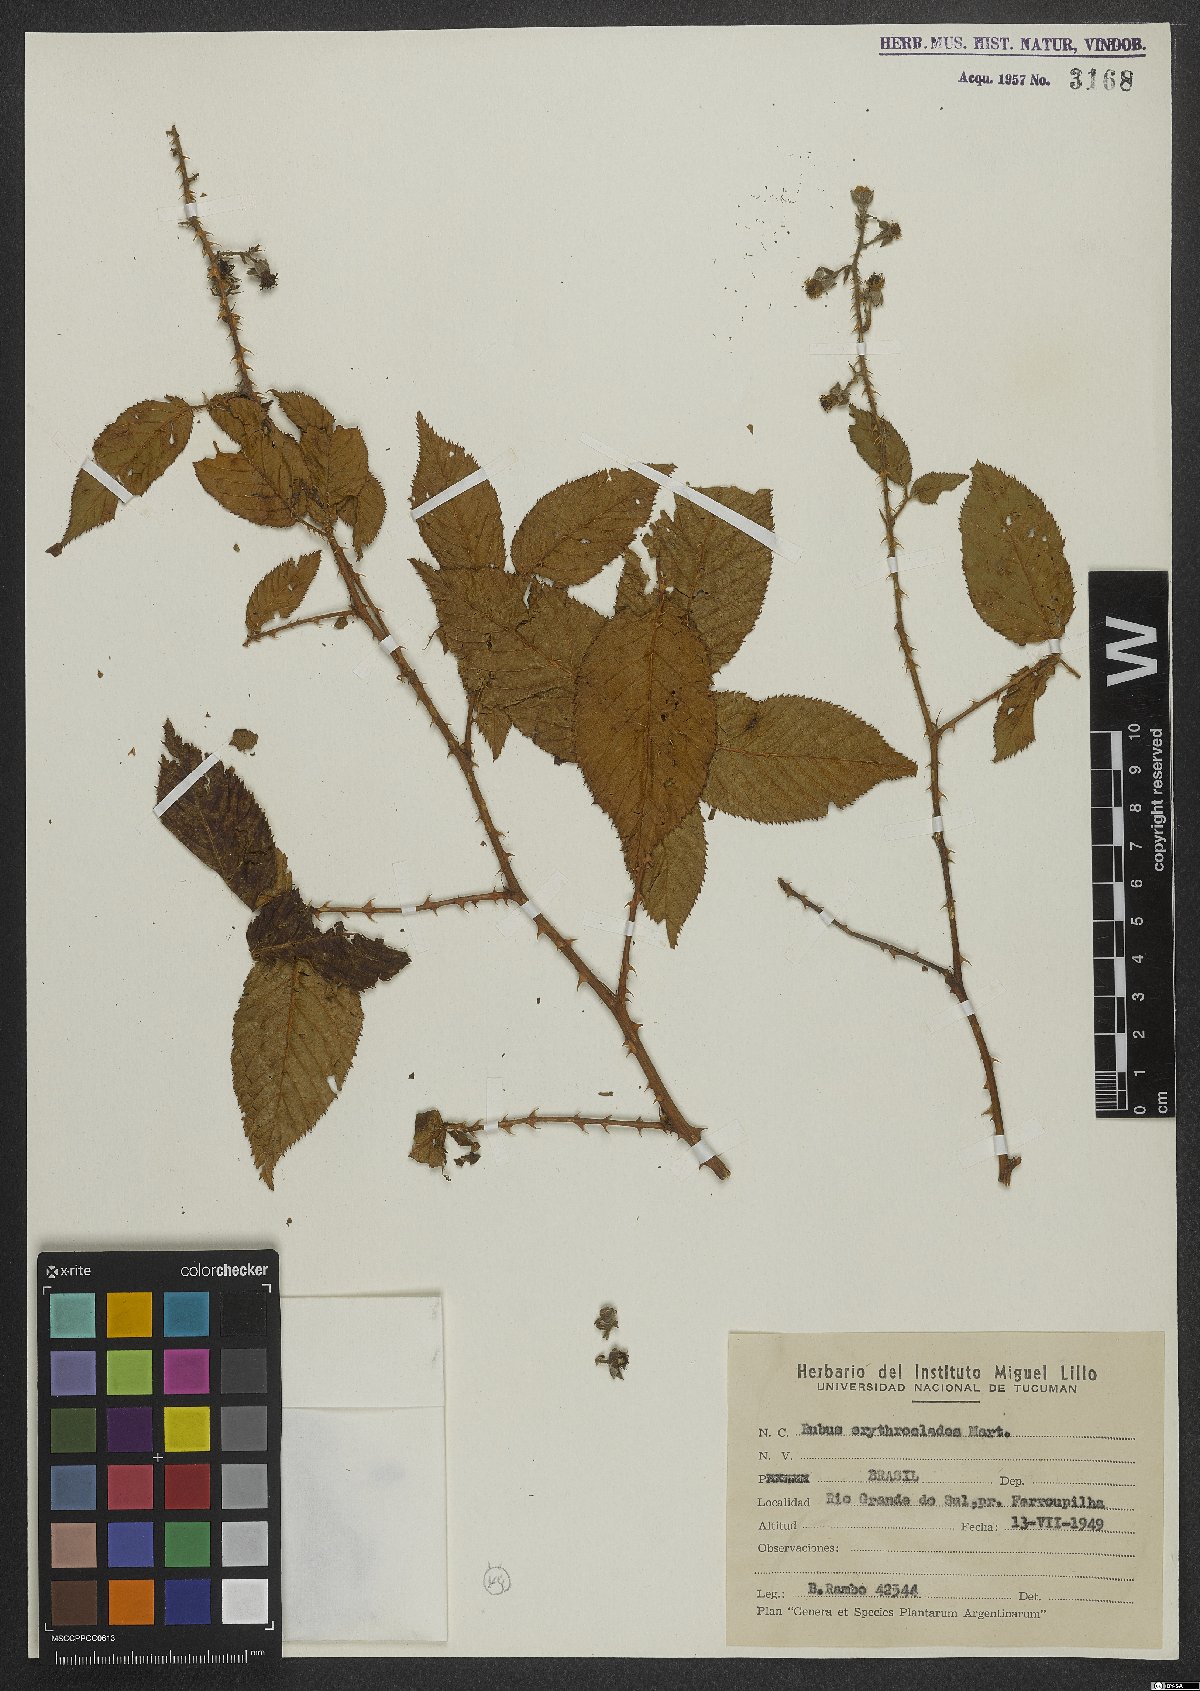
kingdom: Plantae
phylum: Tracheophyta
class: Magnoliopsida
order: Rosales
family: Rosaceae
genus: Rubus
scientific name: Rubus erythroclados
